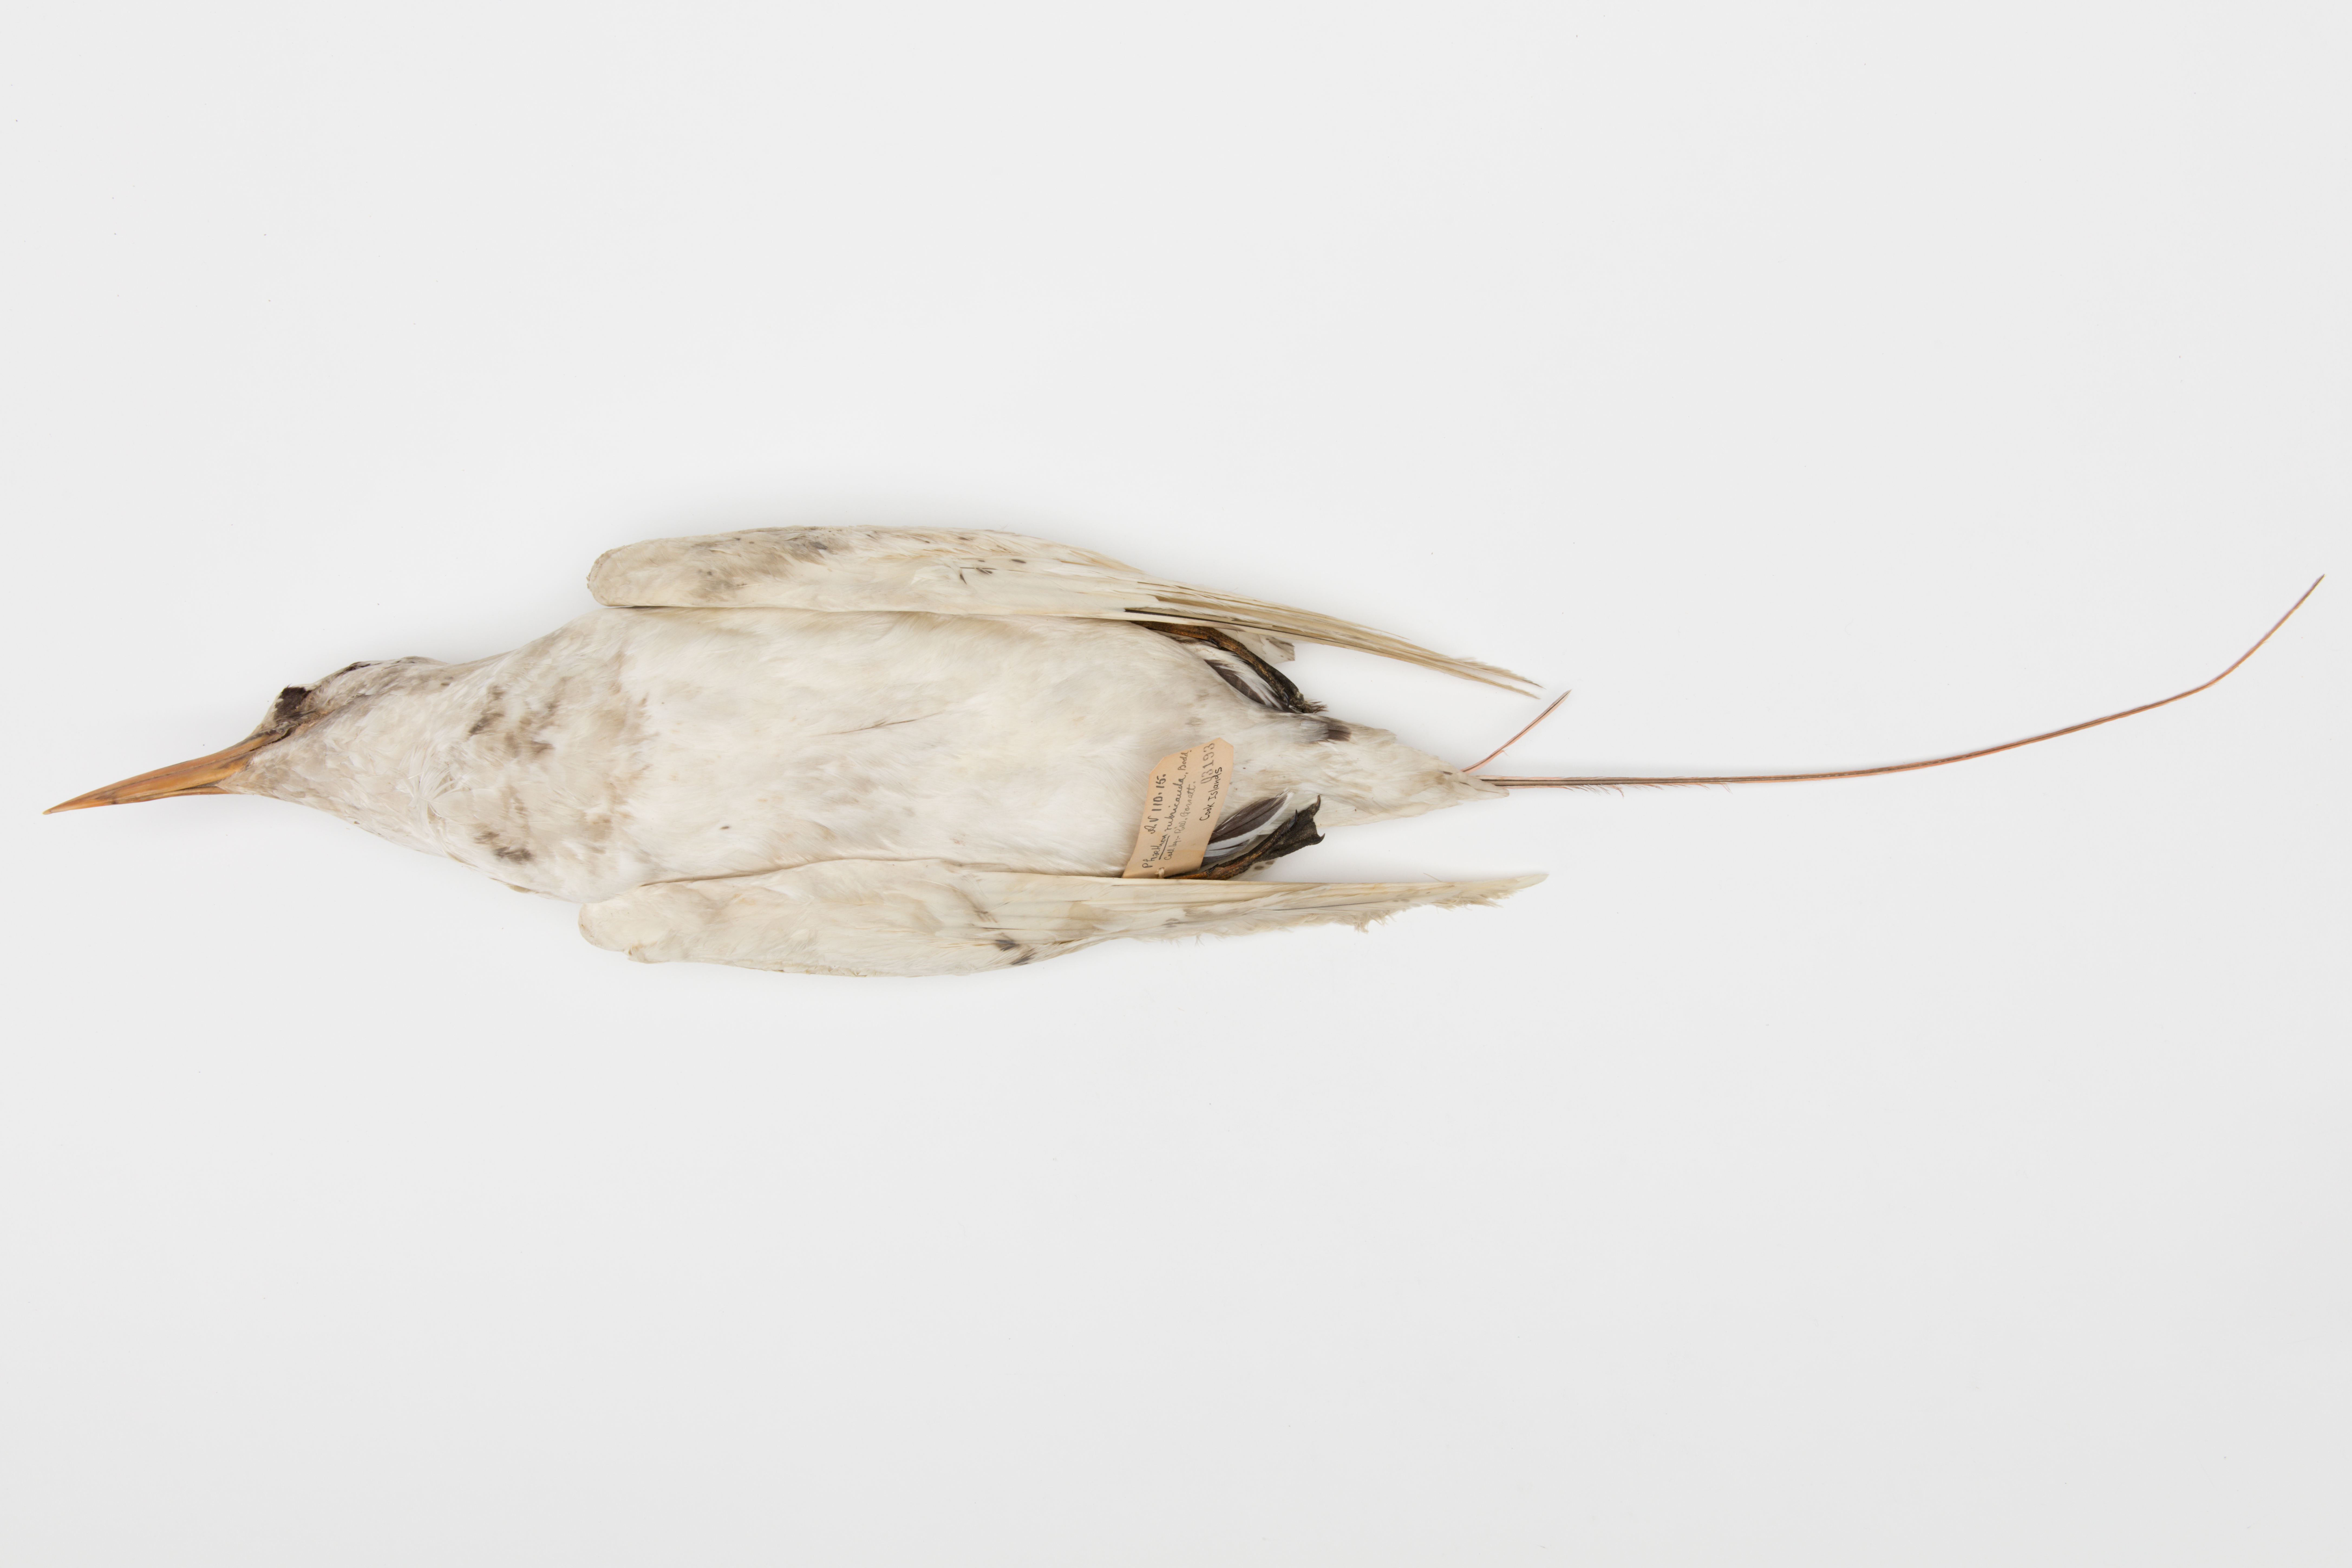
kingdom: Animalia
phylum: Chordata
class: Aves
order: Phaethontiformes
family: Phaethontidae
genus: Phaethon
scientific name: Phaethon rubricauda
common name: Red-tailed tropicbird
